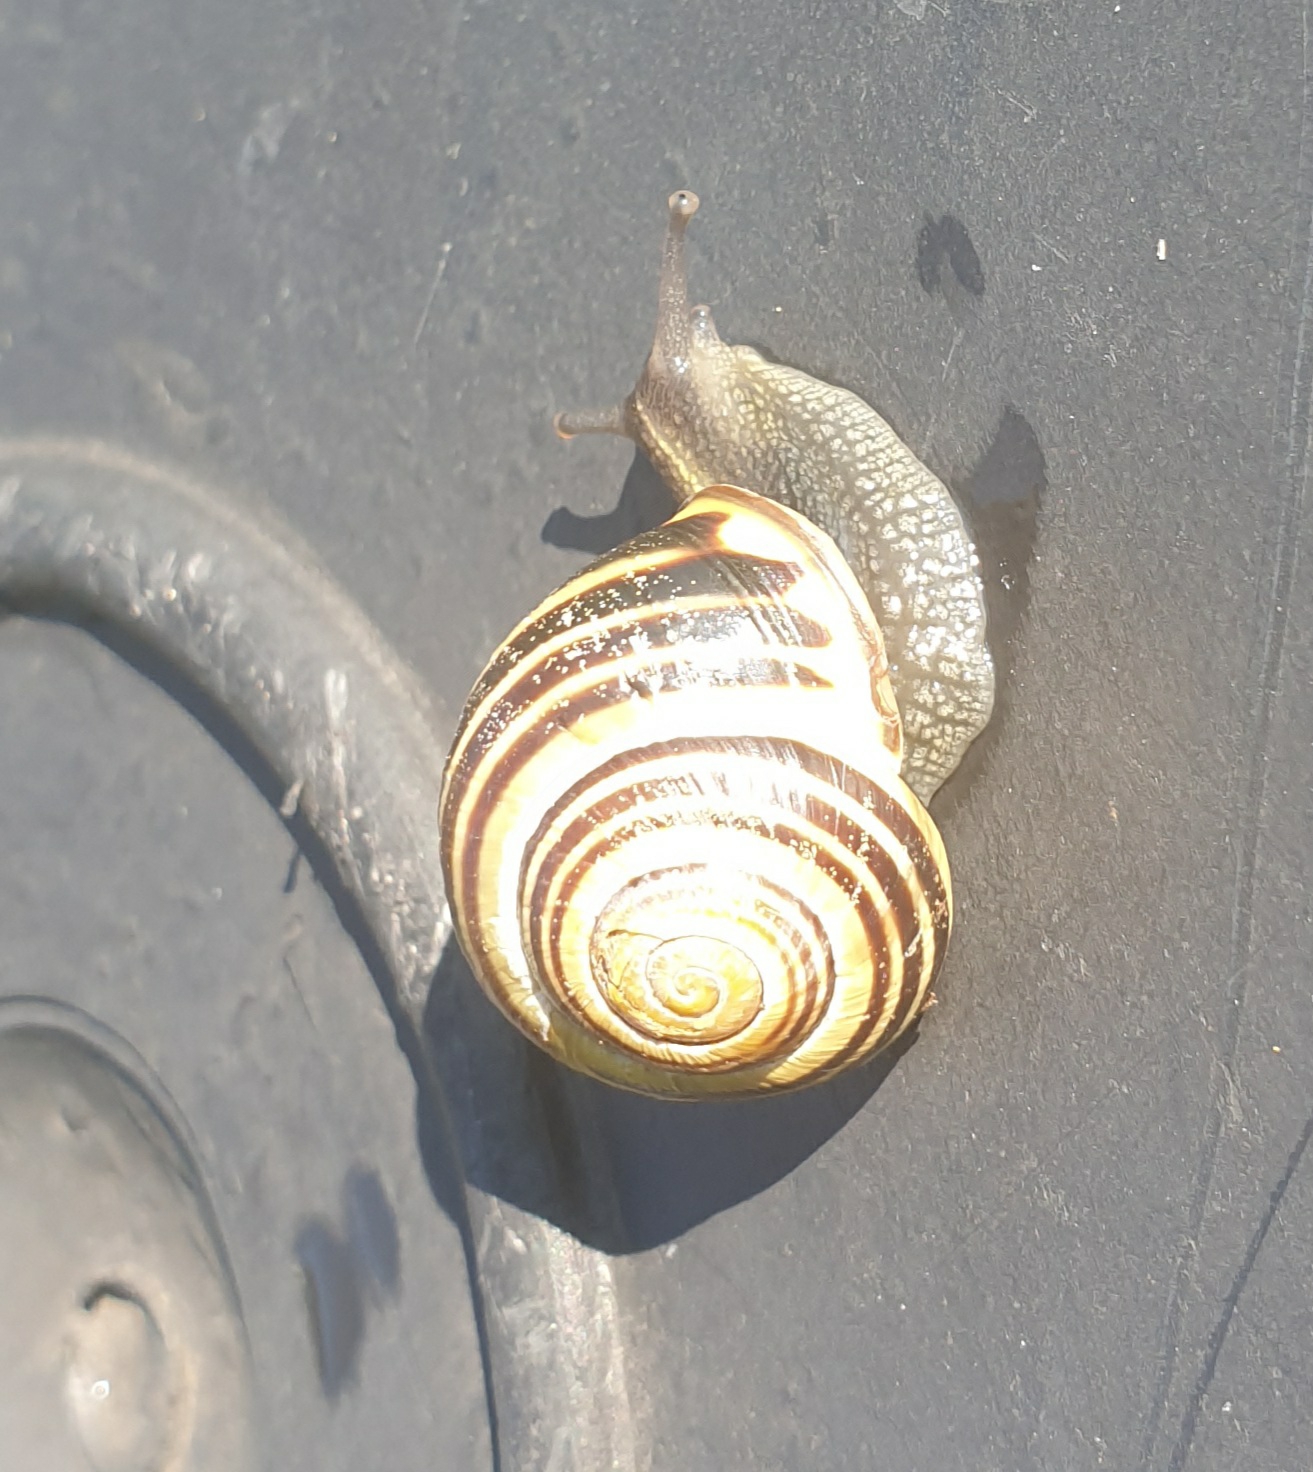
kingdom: Animalia
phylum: Mollusca
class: Gastropoda
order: Stylommatophora
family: Helicidae
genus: Cepaea
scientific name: Cepaea nemoralis
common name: Lundsnegl
